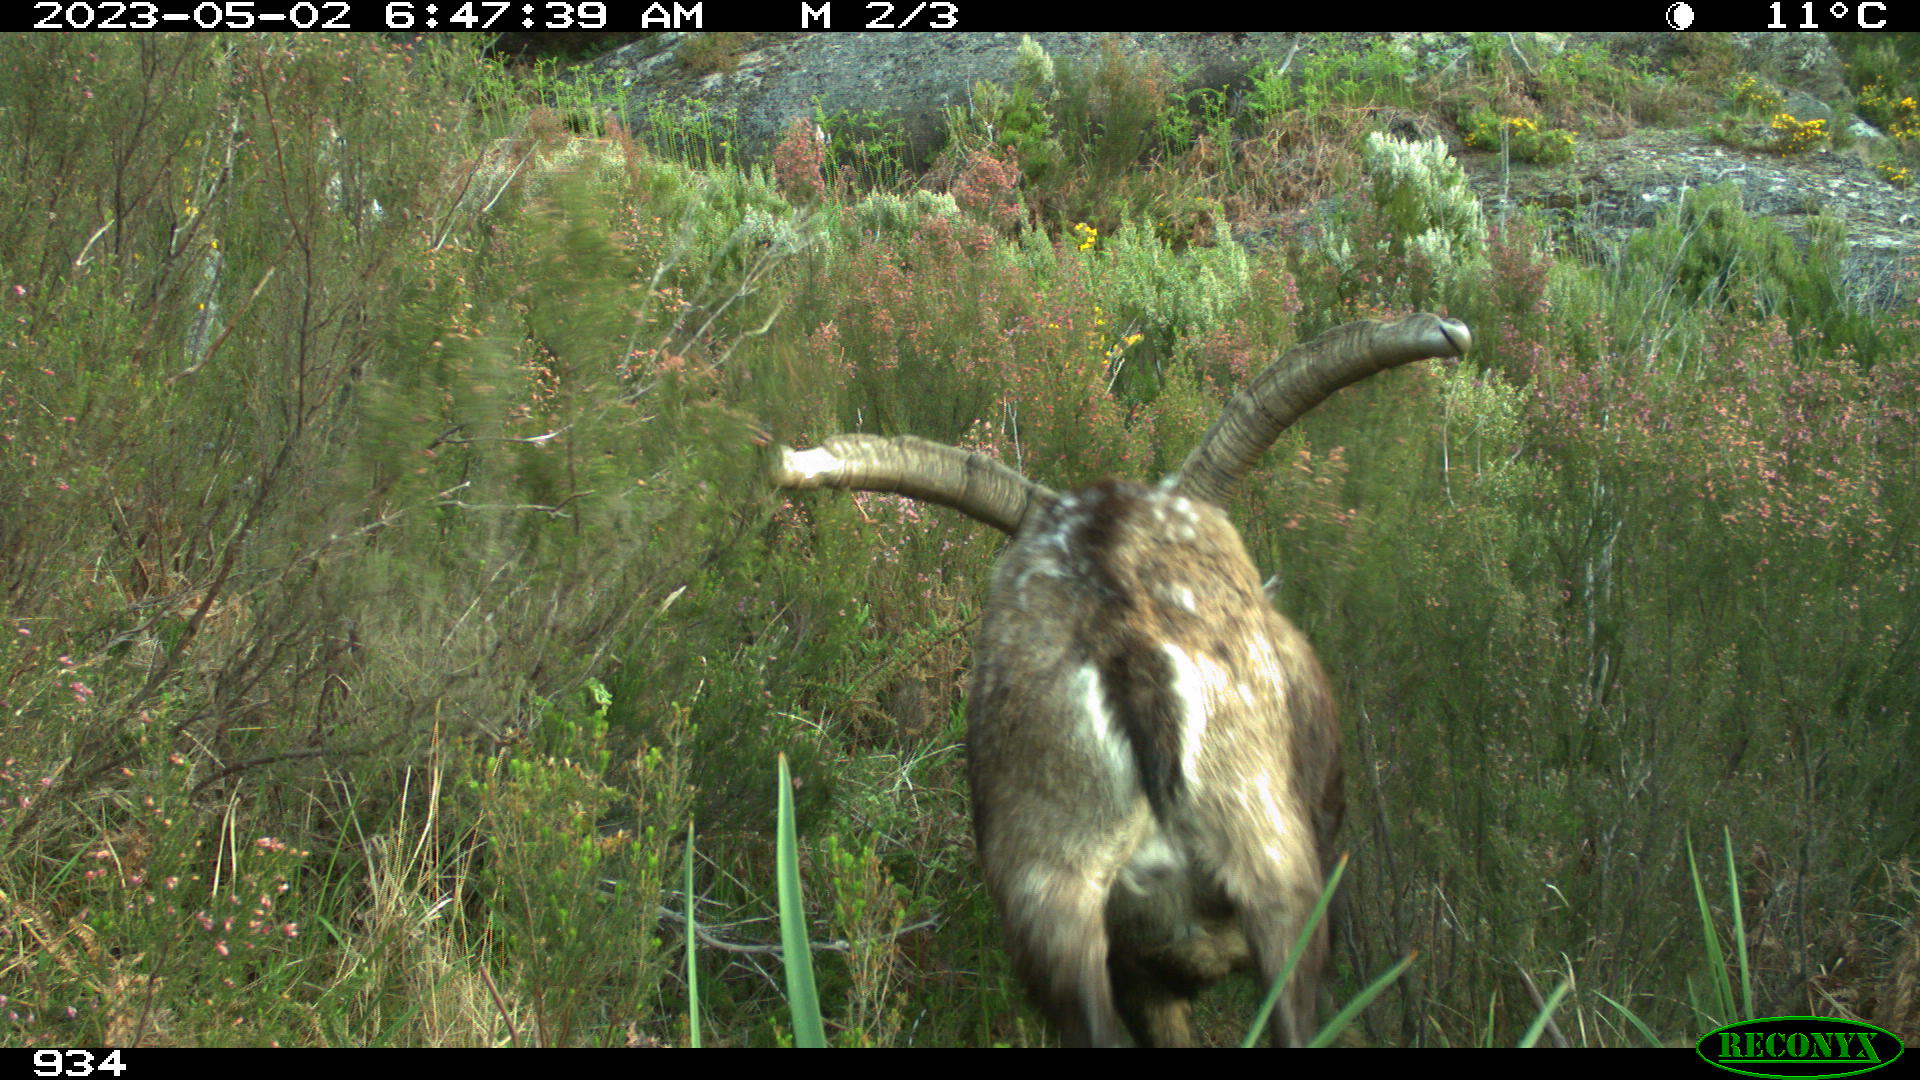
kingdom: Animalia
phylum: Chordata
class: Mammalia
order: Artiodactyla
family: Bovidae
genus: Capra
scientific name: Capra pyrenaica
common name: Spanish ibex
